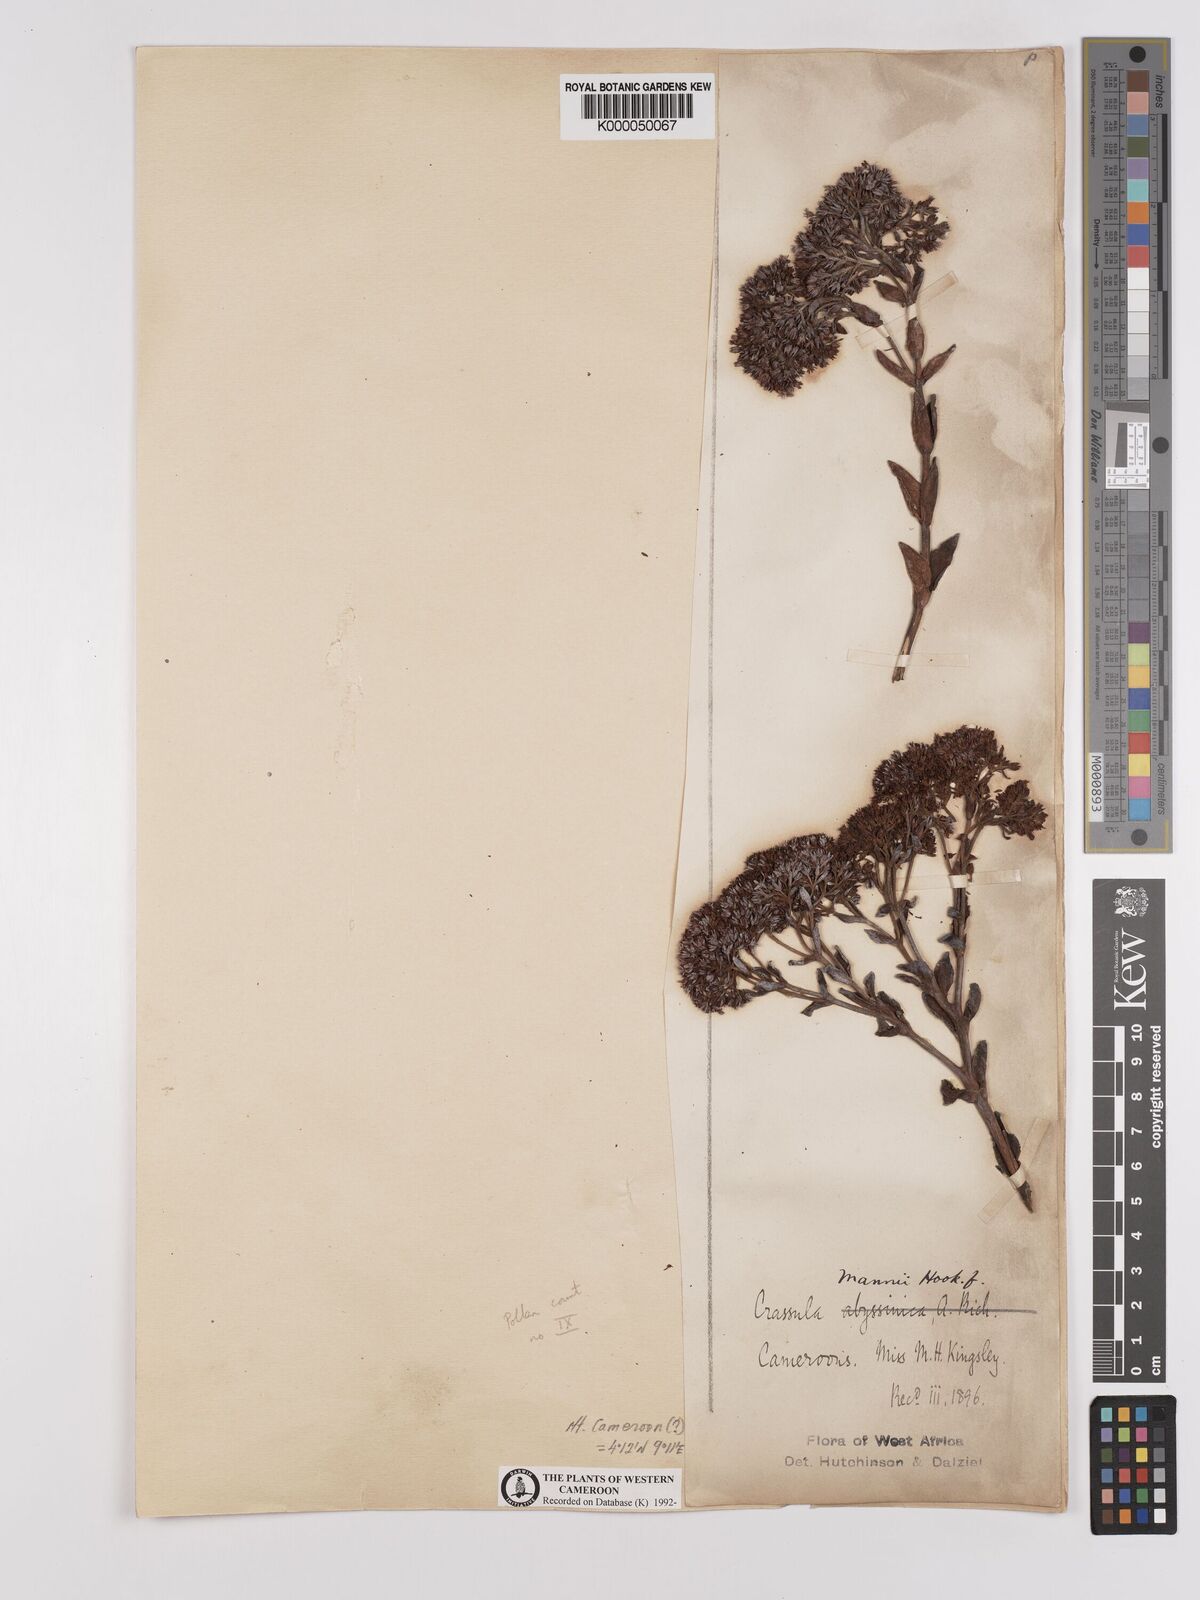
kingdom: Plantae
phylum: Tracheophyta
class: Magnoliopsida
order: Saxifragales
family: Crassulaceae
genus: Crassula
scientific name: Crassula vaginata
